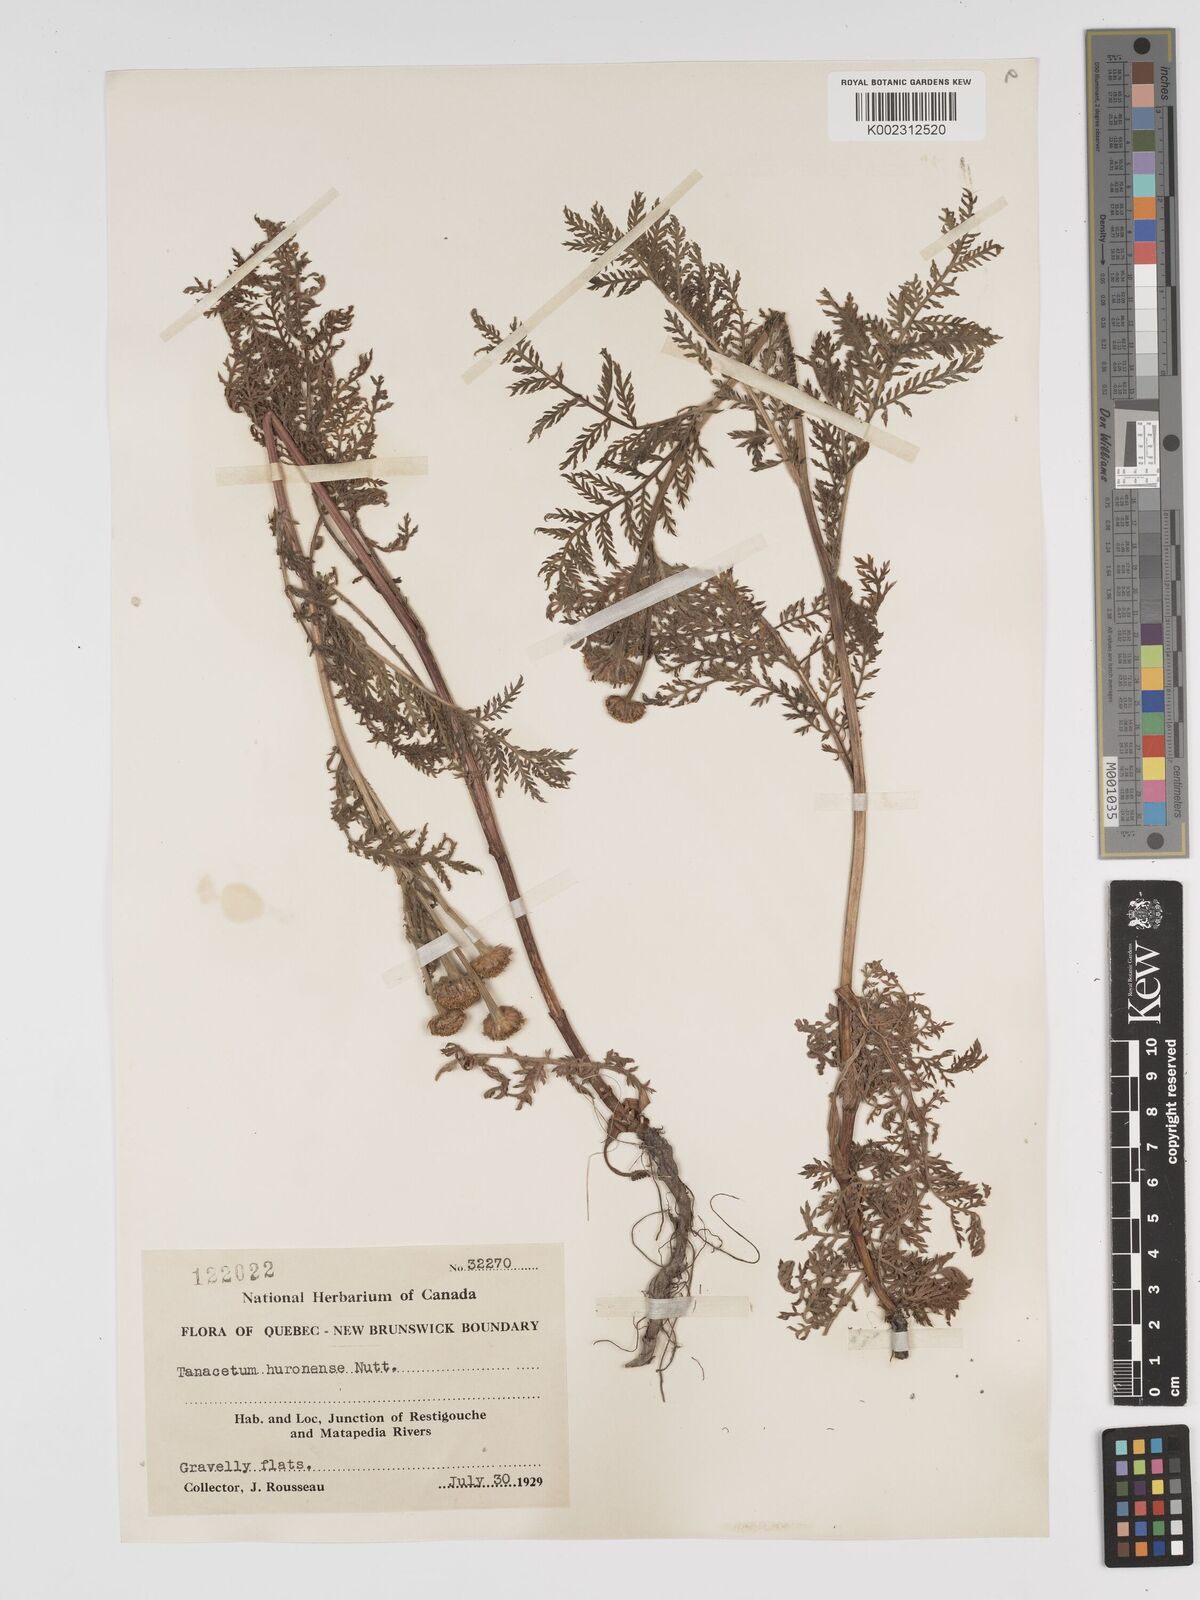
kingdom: Plantae
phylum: Tracheophyta
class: Magnoliopsida
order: Asterales
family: Asteraceae
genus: Tanacetum
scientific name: Tanacetum bipinnatum
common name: Dwarf tansy
